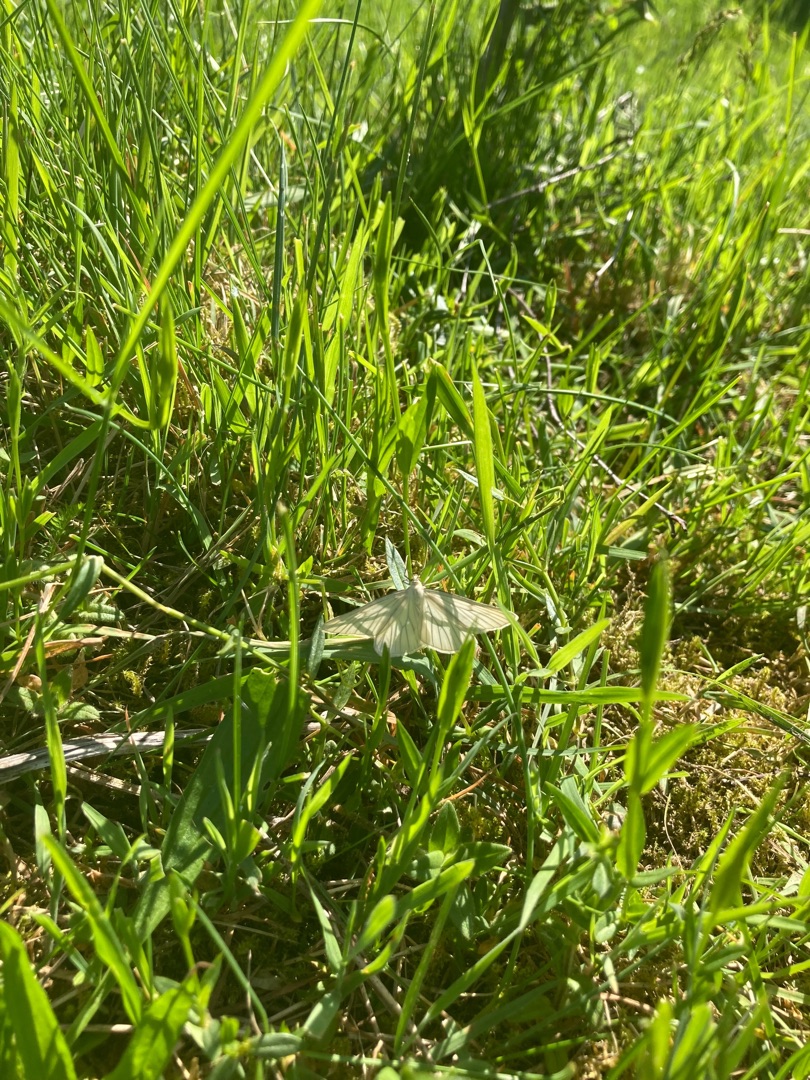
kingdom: Animalia
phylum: Arthropoda
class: Insecta
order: Lepidoptera
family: Geometridae
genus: Siona
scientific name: Siona lineata
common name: Hvidvingemåler
